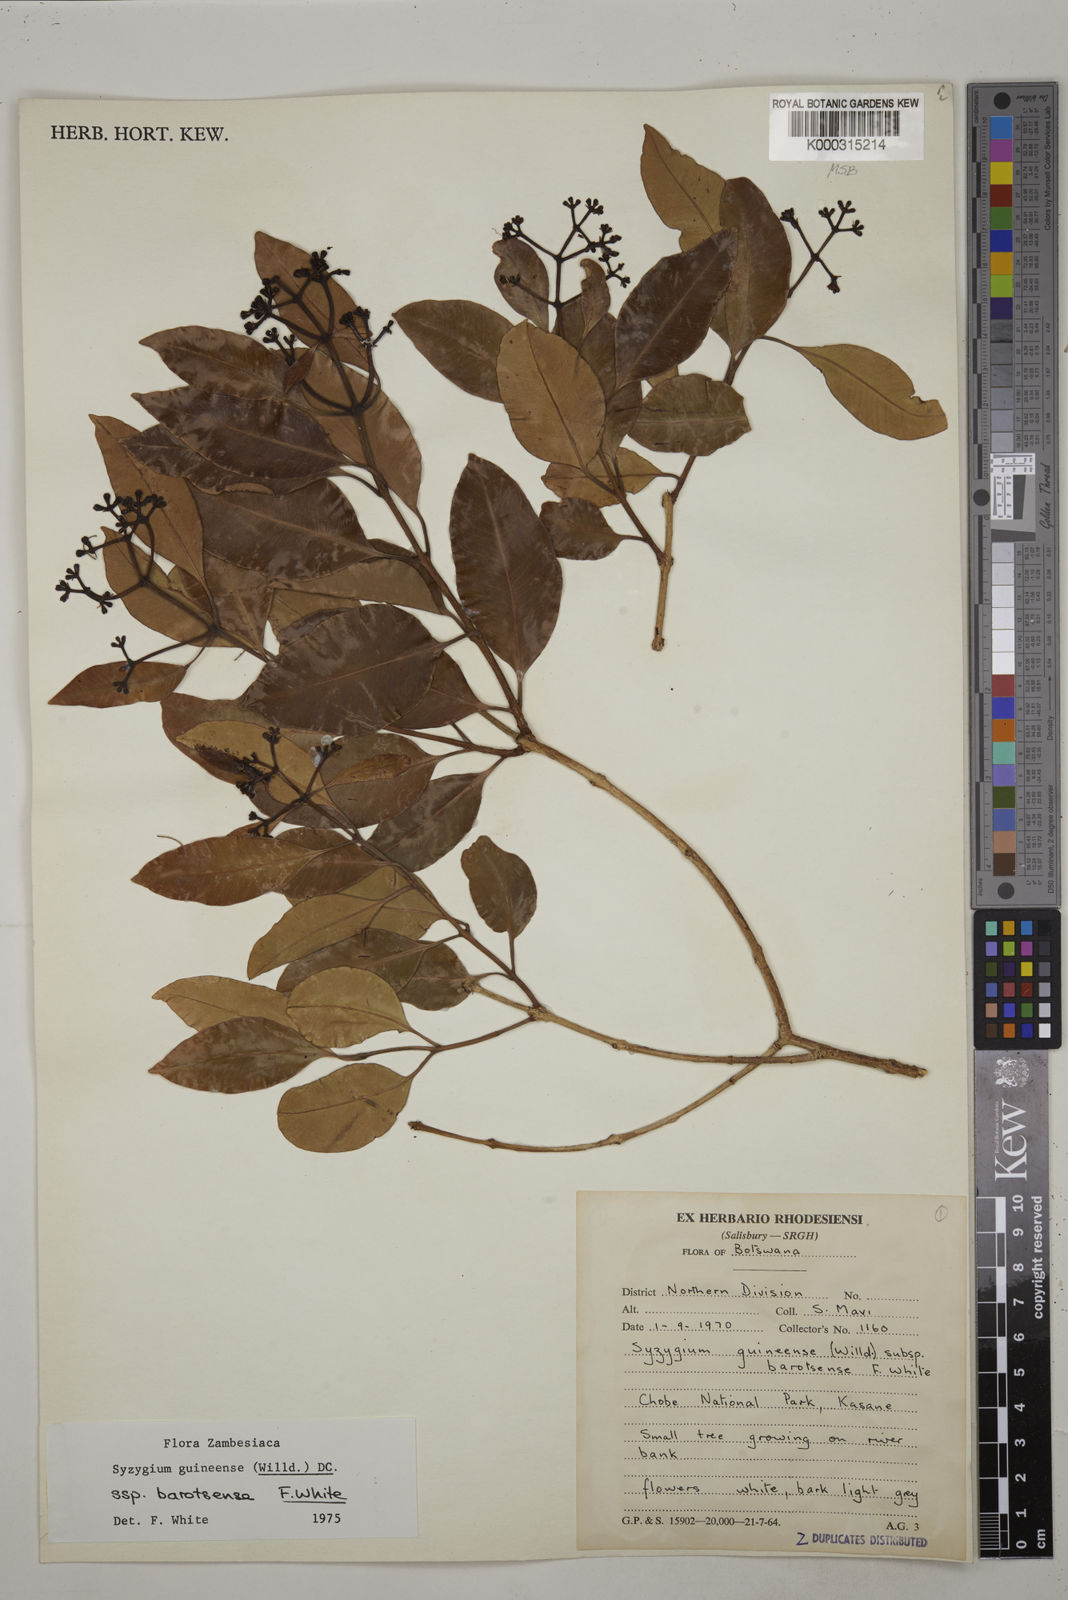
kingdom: Plantae
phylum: Tracheophyta
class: Magnoliopsida
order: Myrtales
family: Myrtaceae
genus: Syzygium
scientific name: Syzygium guineense
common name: Water-pear
